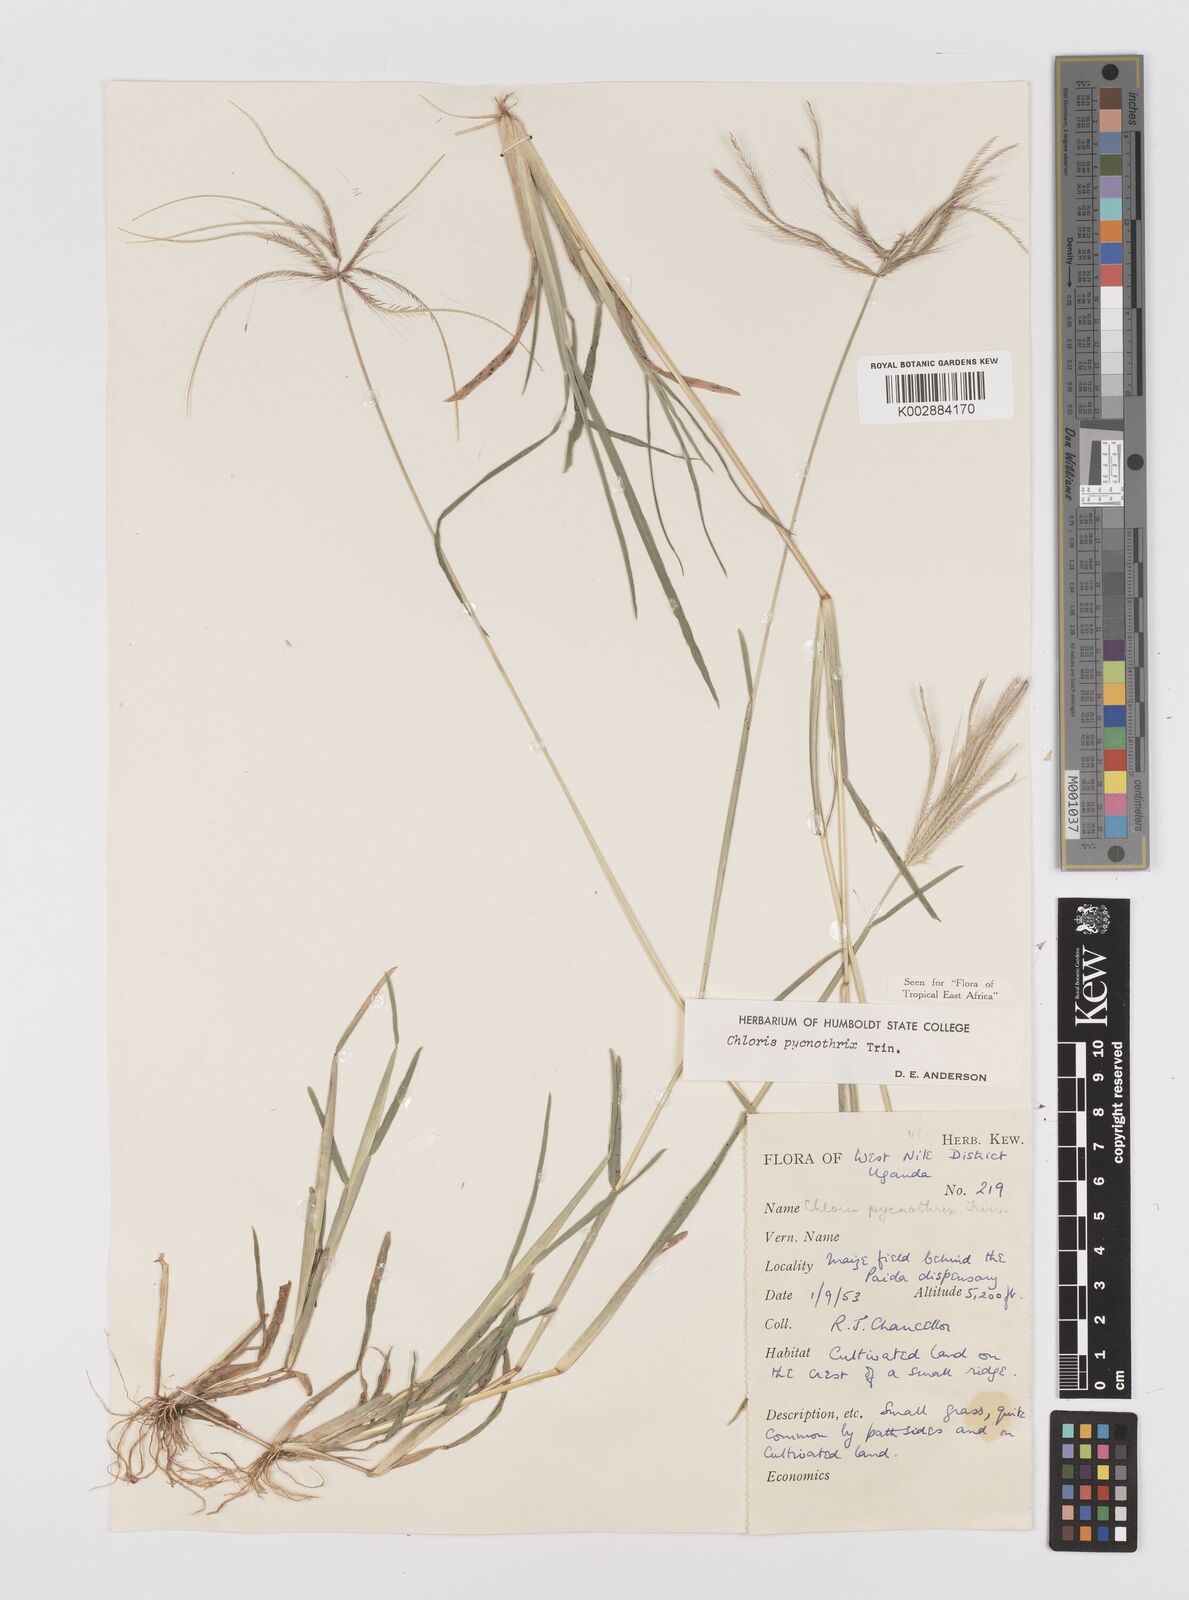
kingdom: Plantae
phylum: Tracheophyta
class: Liliopsida
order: Poales
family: Poaceae
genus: Chloris
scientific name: Chloris pycnothrix
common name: Spiderweb chloris
